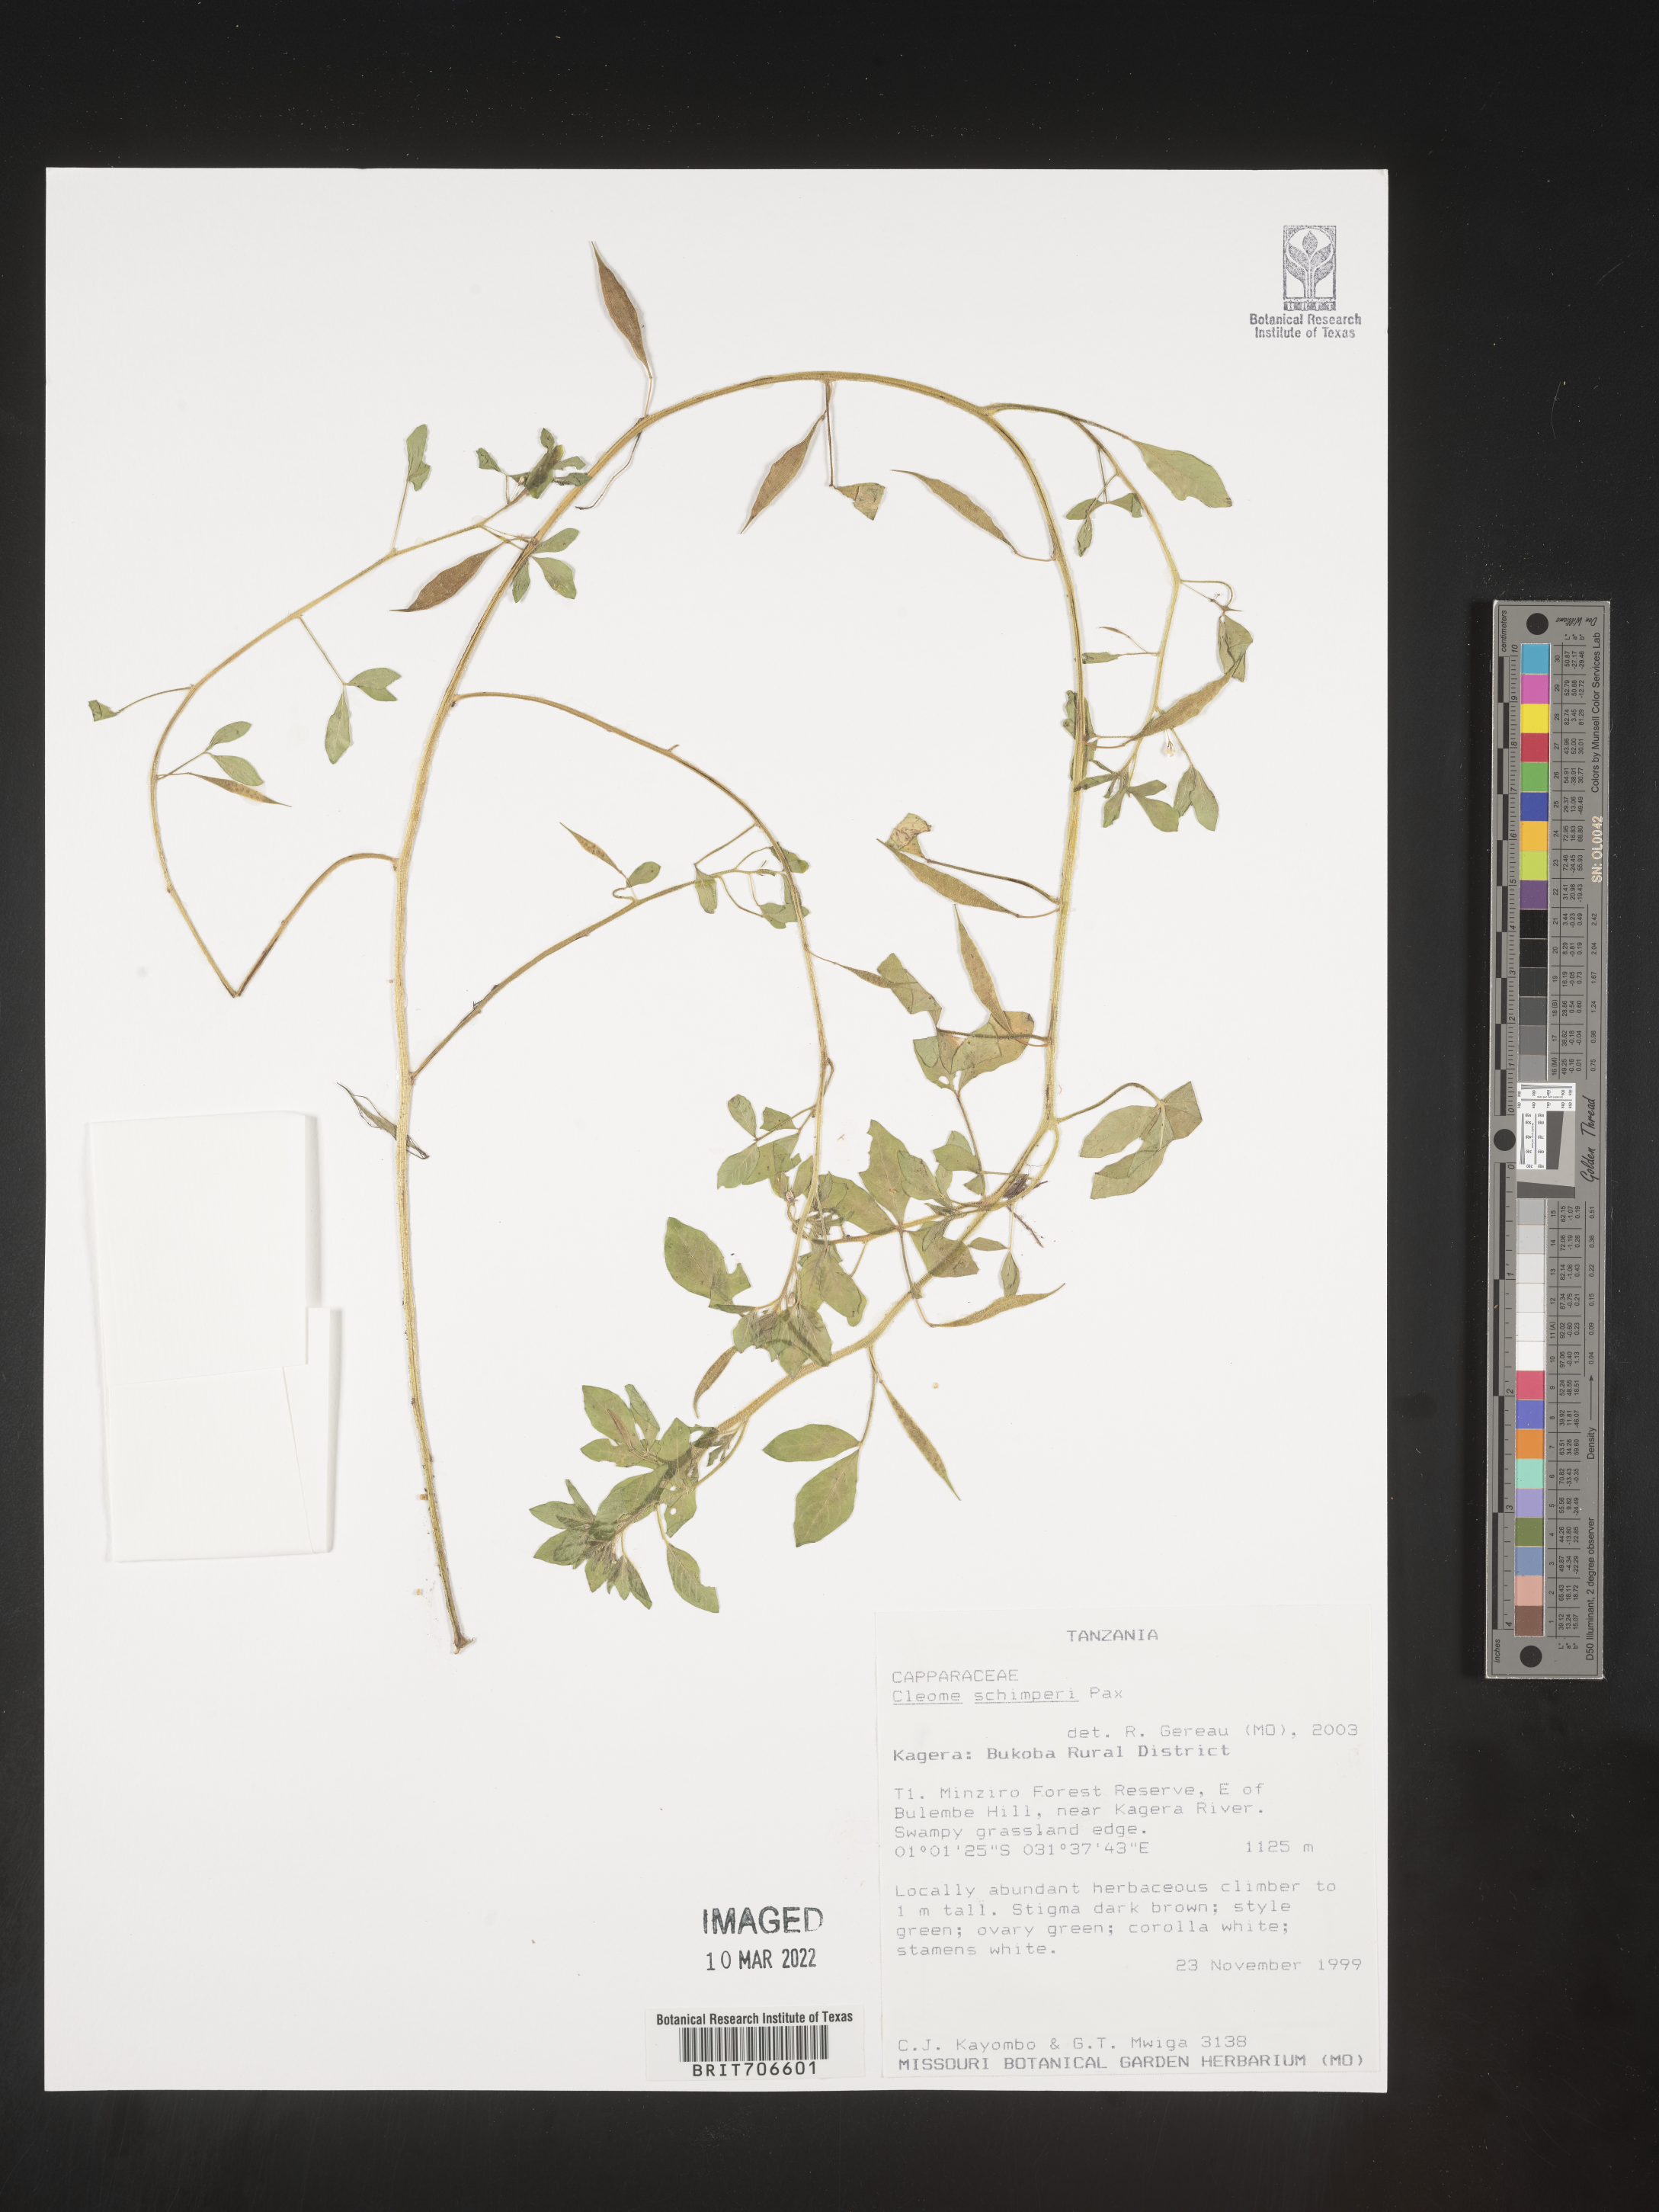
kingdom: Plantae
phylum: Tracheophyta
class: Magnoliopsida
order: Brassicales
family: Cleomaceae
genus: Cleome
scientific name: Cleome
